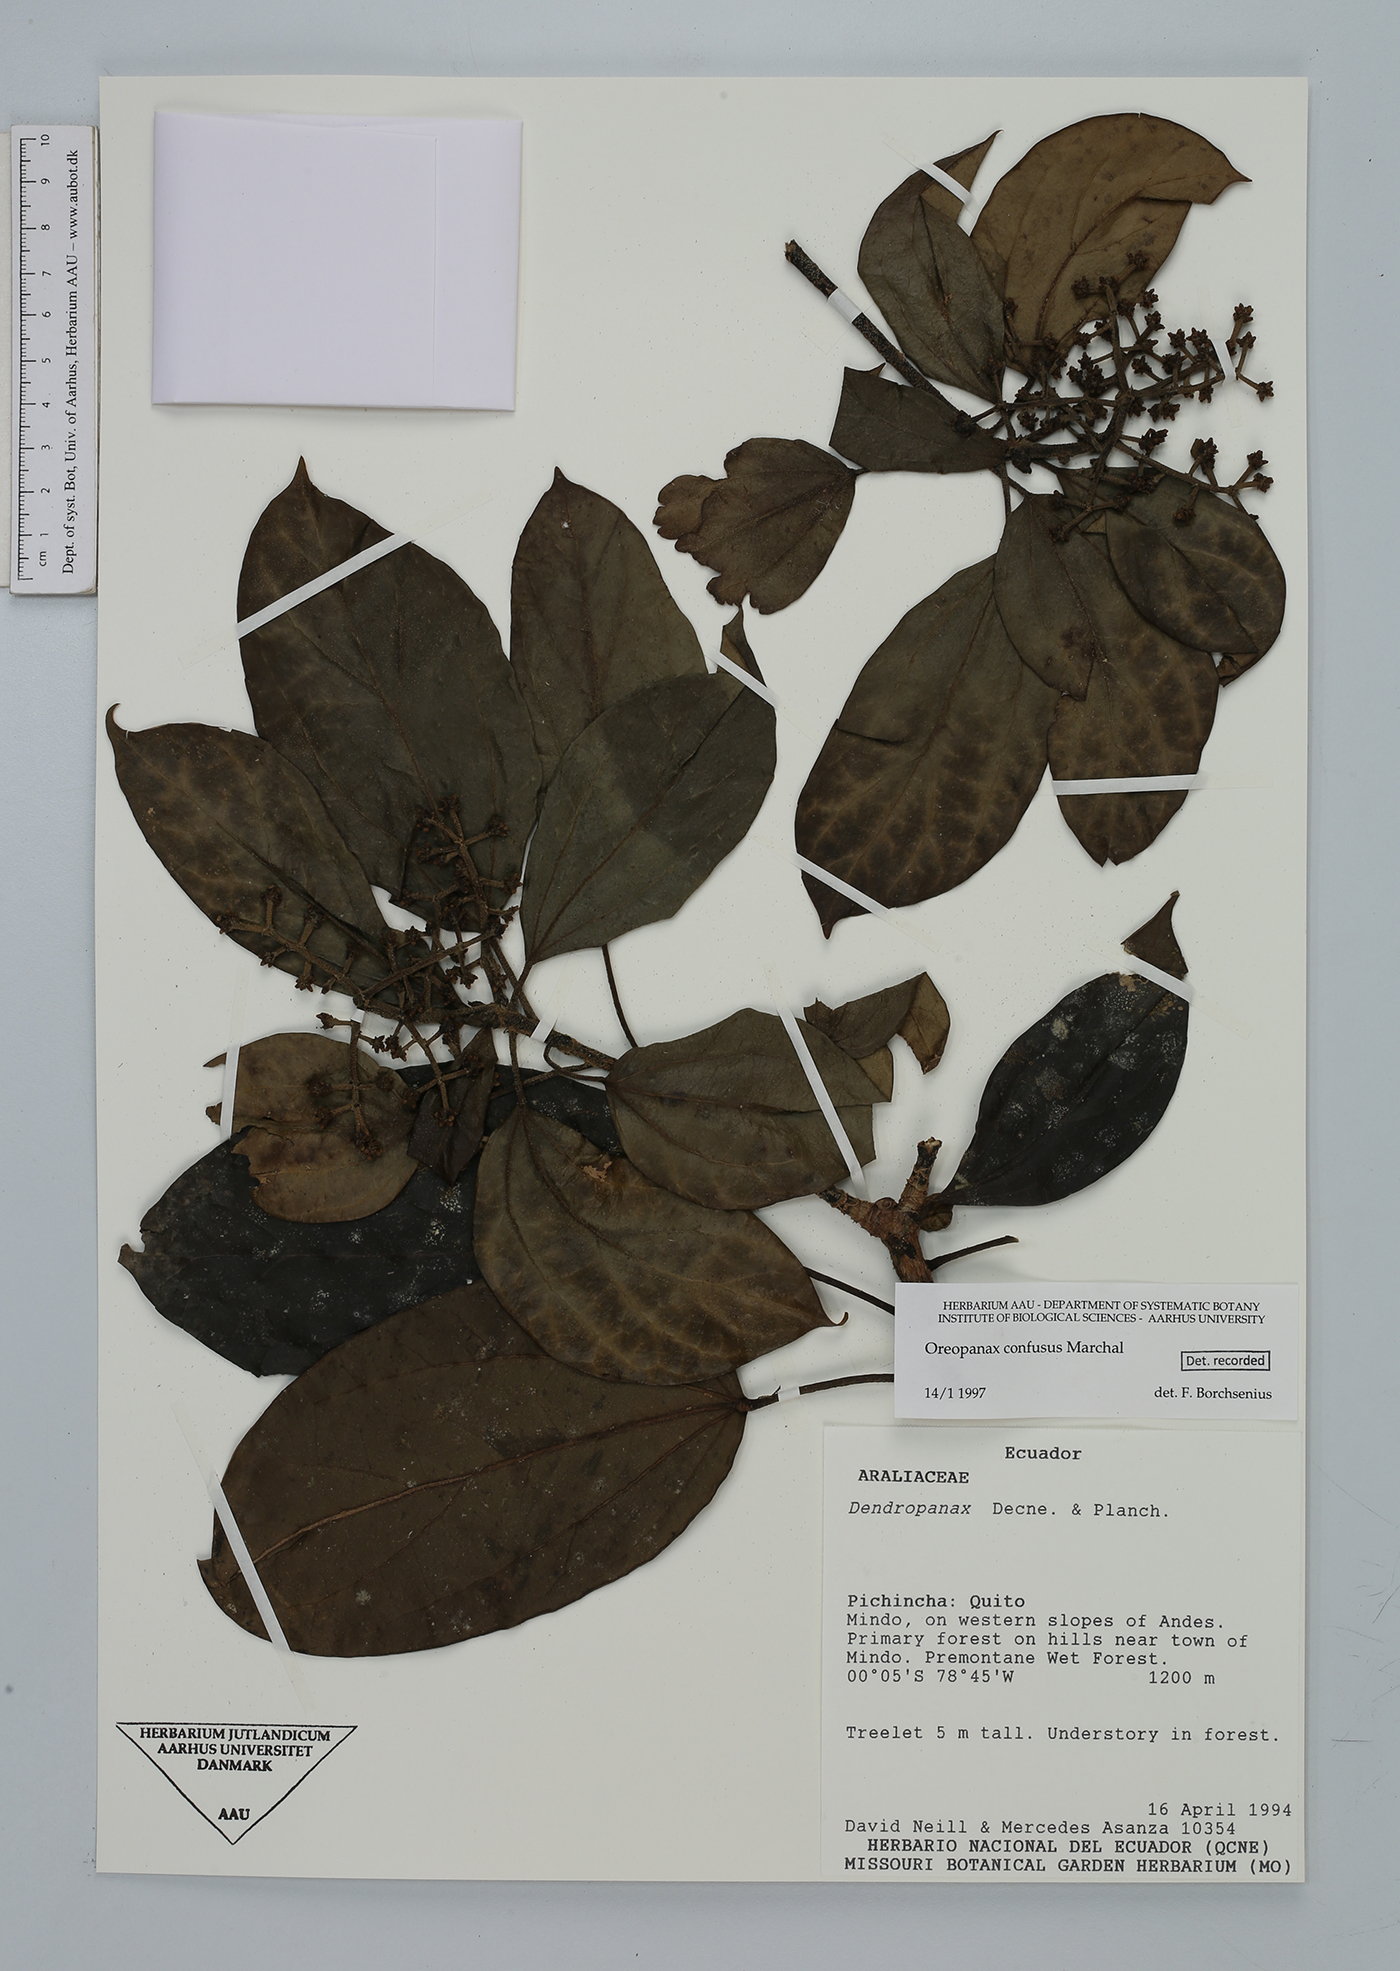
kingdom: Plantae
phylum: Tracheophyta
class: Magnoliopsida
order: Apiales
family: Araliaceae
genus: Oreopanax
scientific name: Oreopanax confusus
